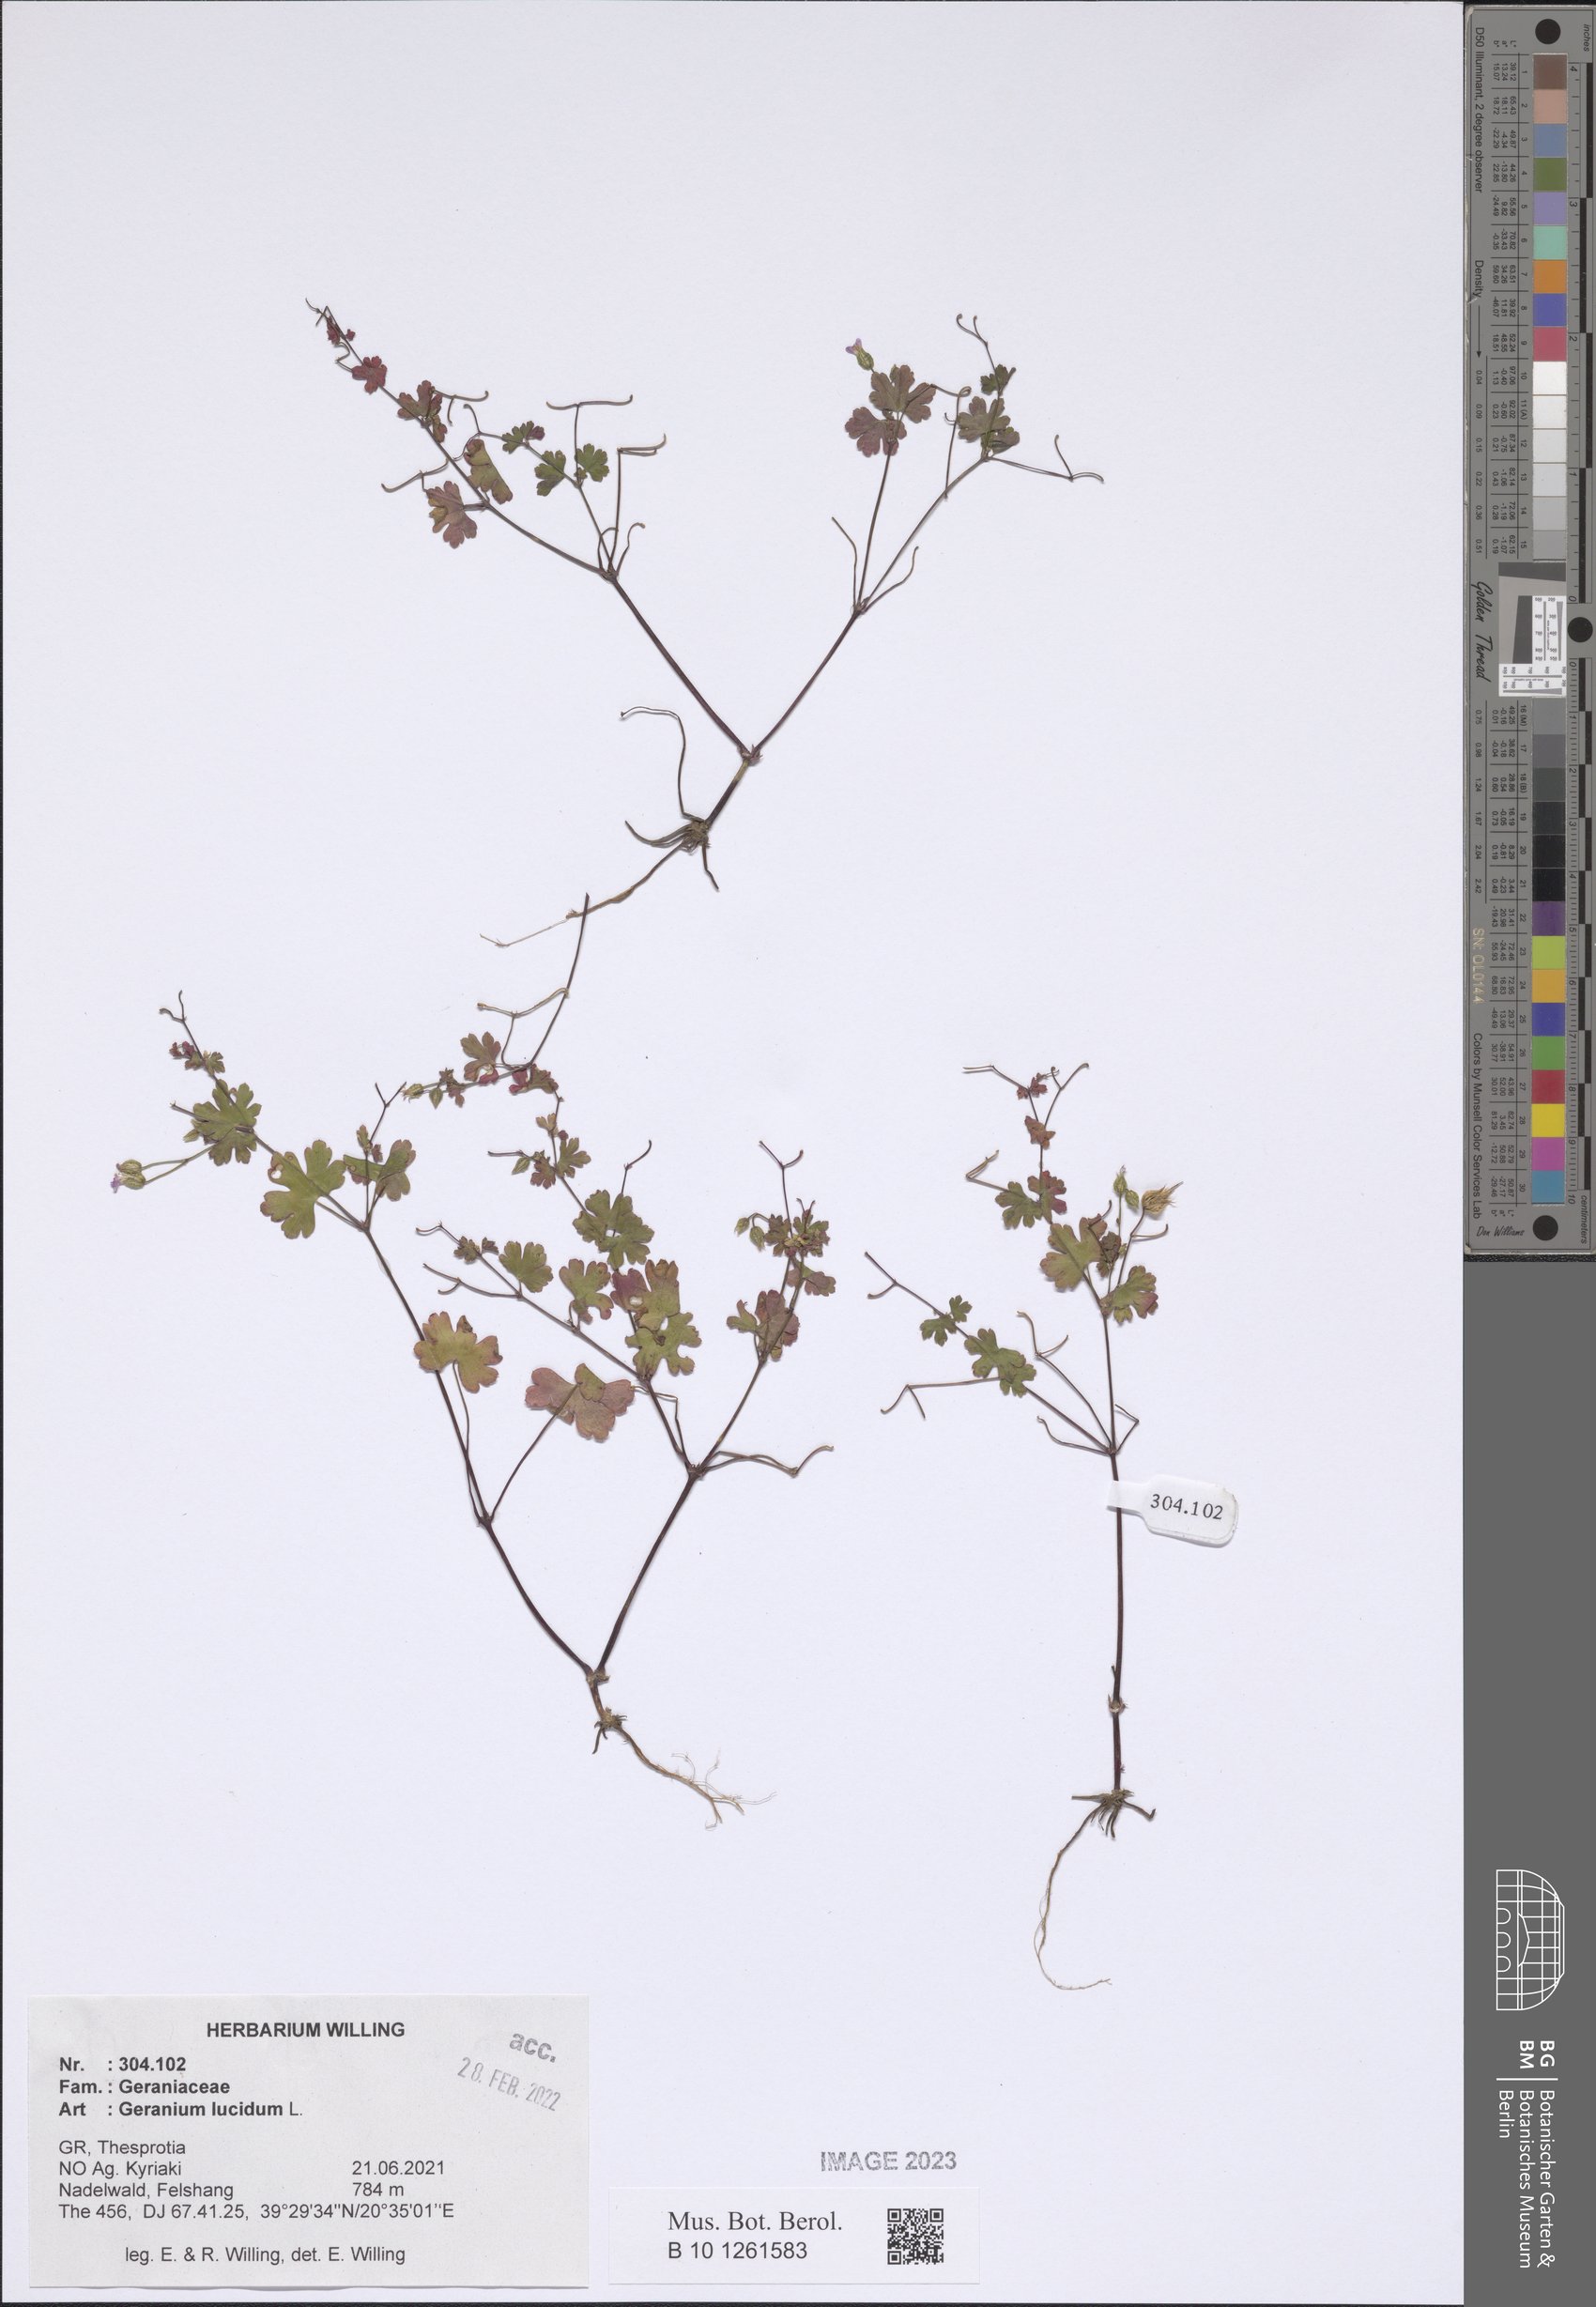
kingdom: Plantae
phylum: Tracheophyta
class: Magnoliopsida
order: Geraniales
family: Geraniaceae
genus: Geranium
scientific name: Geranium lucidum
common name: Shining crane's-bill
